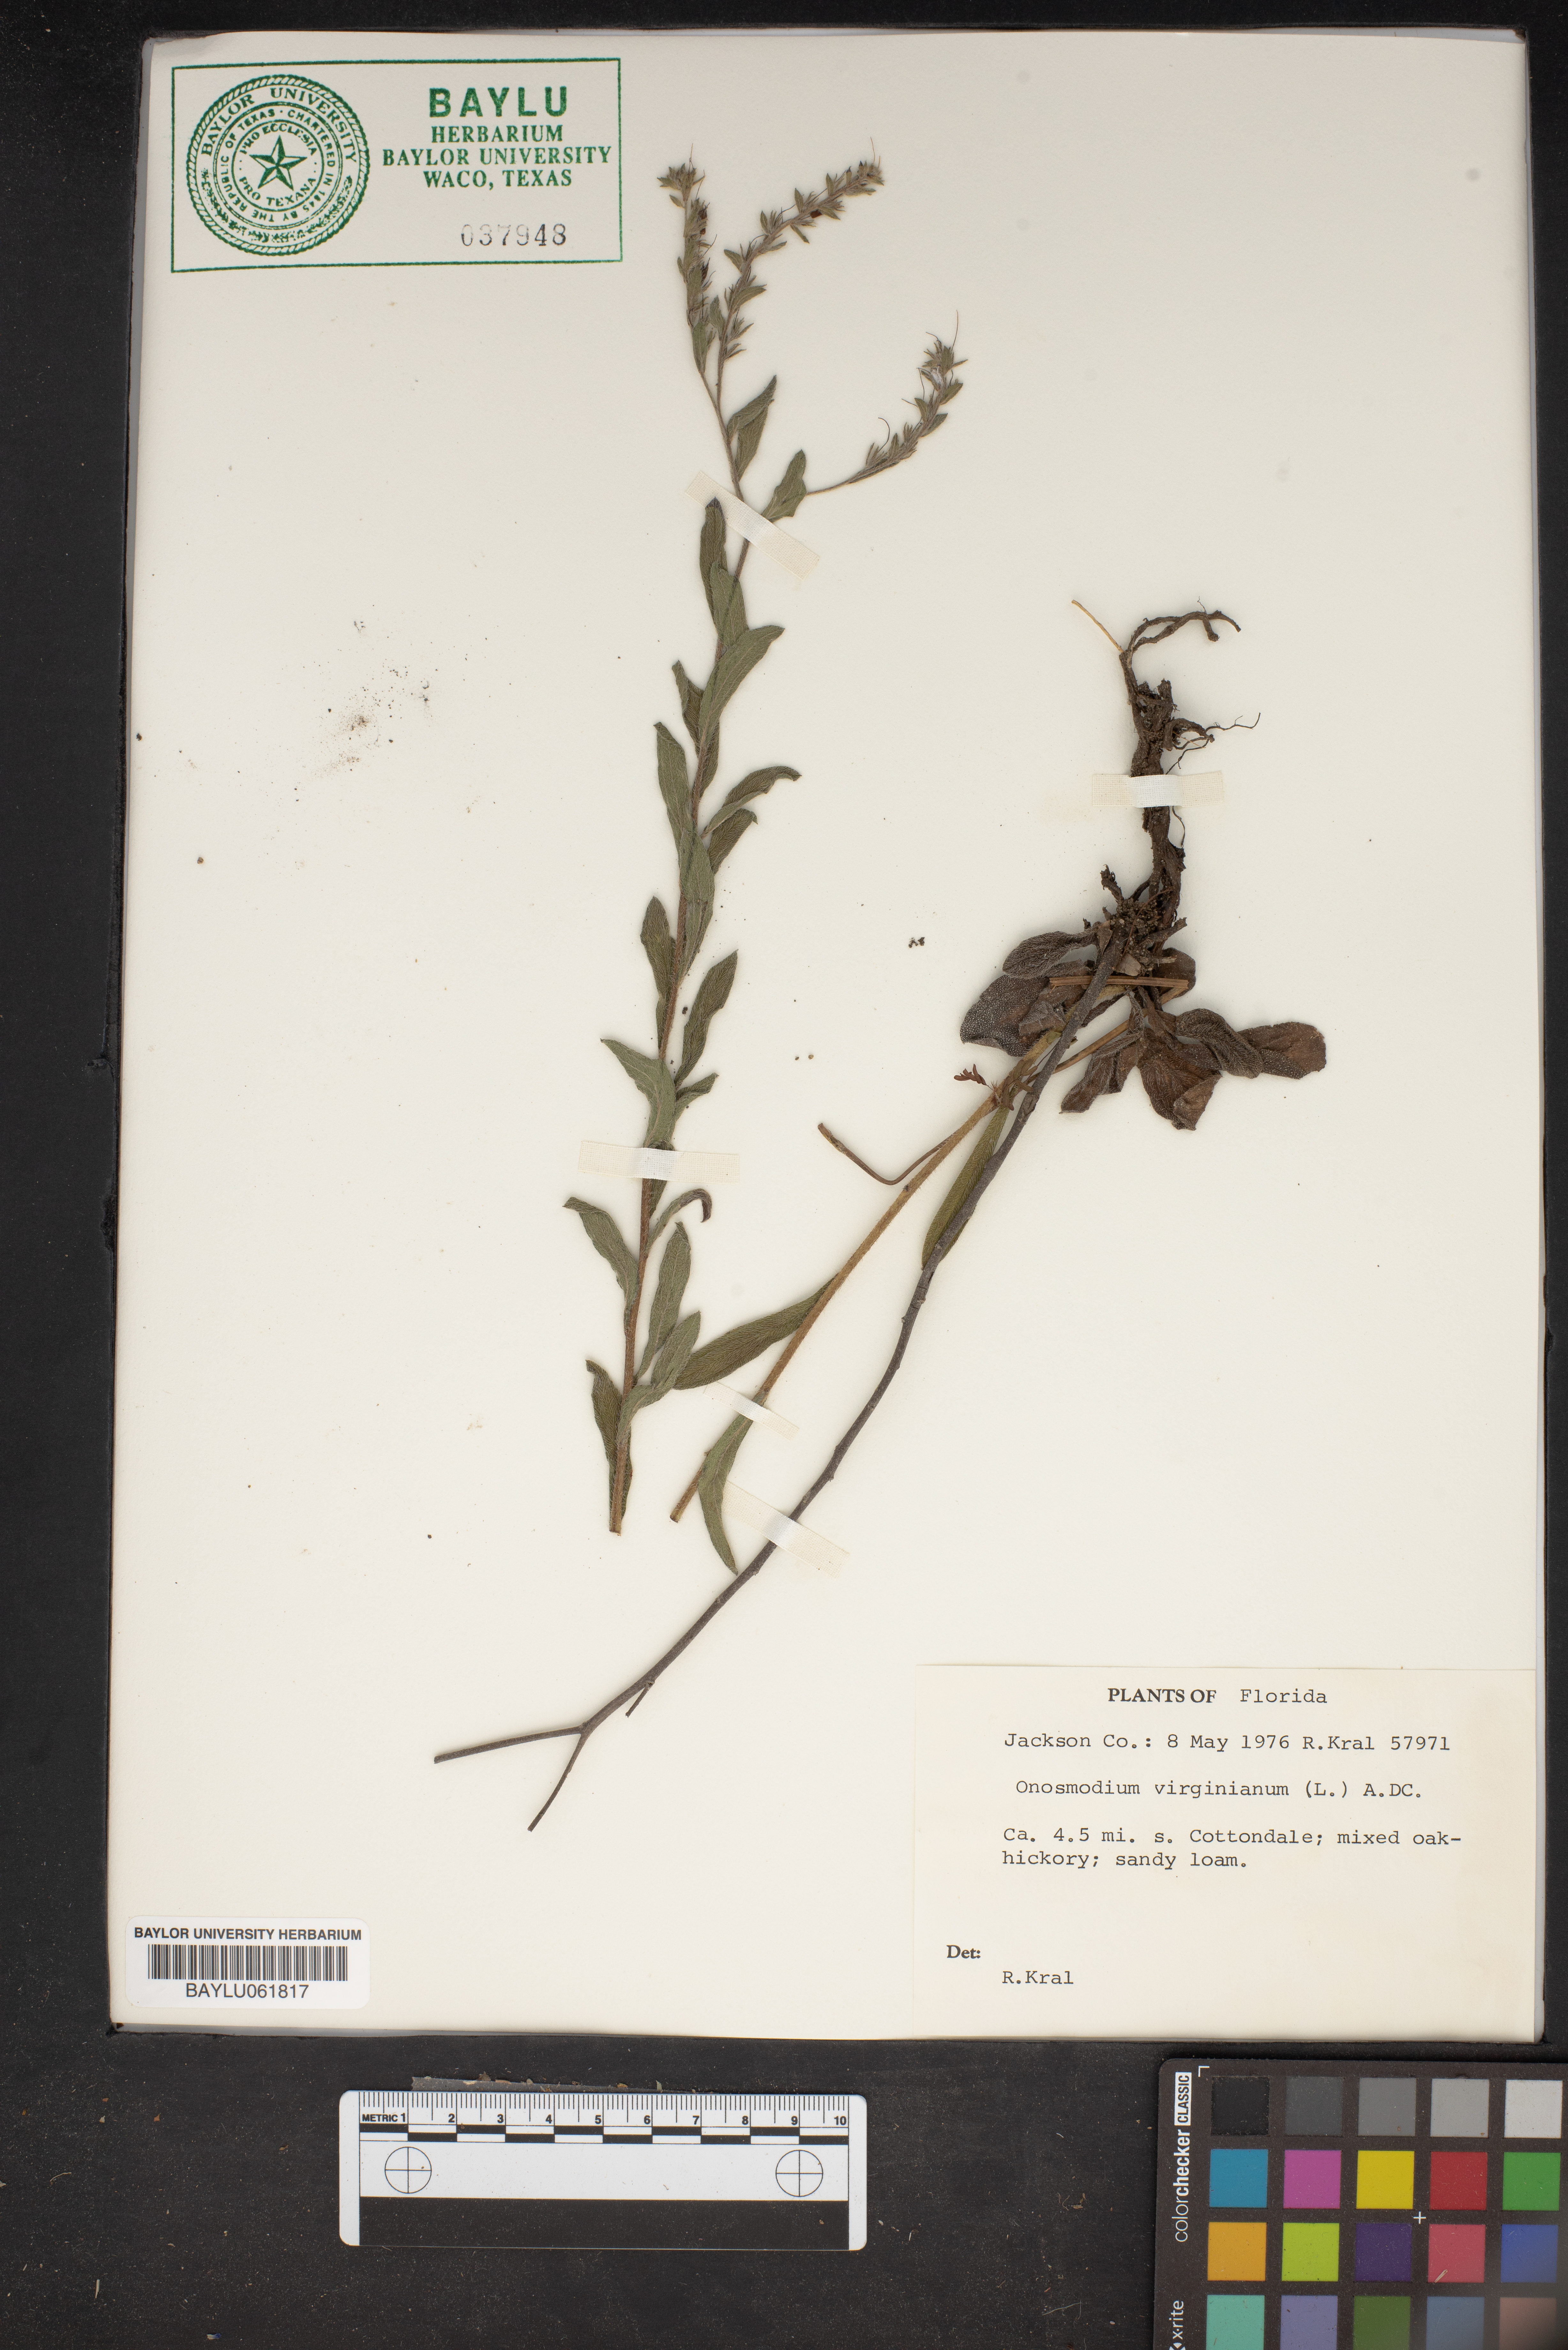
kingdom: Plantae
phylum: Tracheophyta
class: Magnoliopsida
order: Boraginales
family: Boraginaceae
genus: Lithospermum
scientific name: Lithospermum virginianum
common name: Eastern false gromwell
